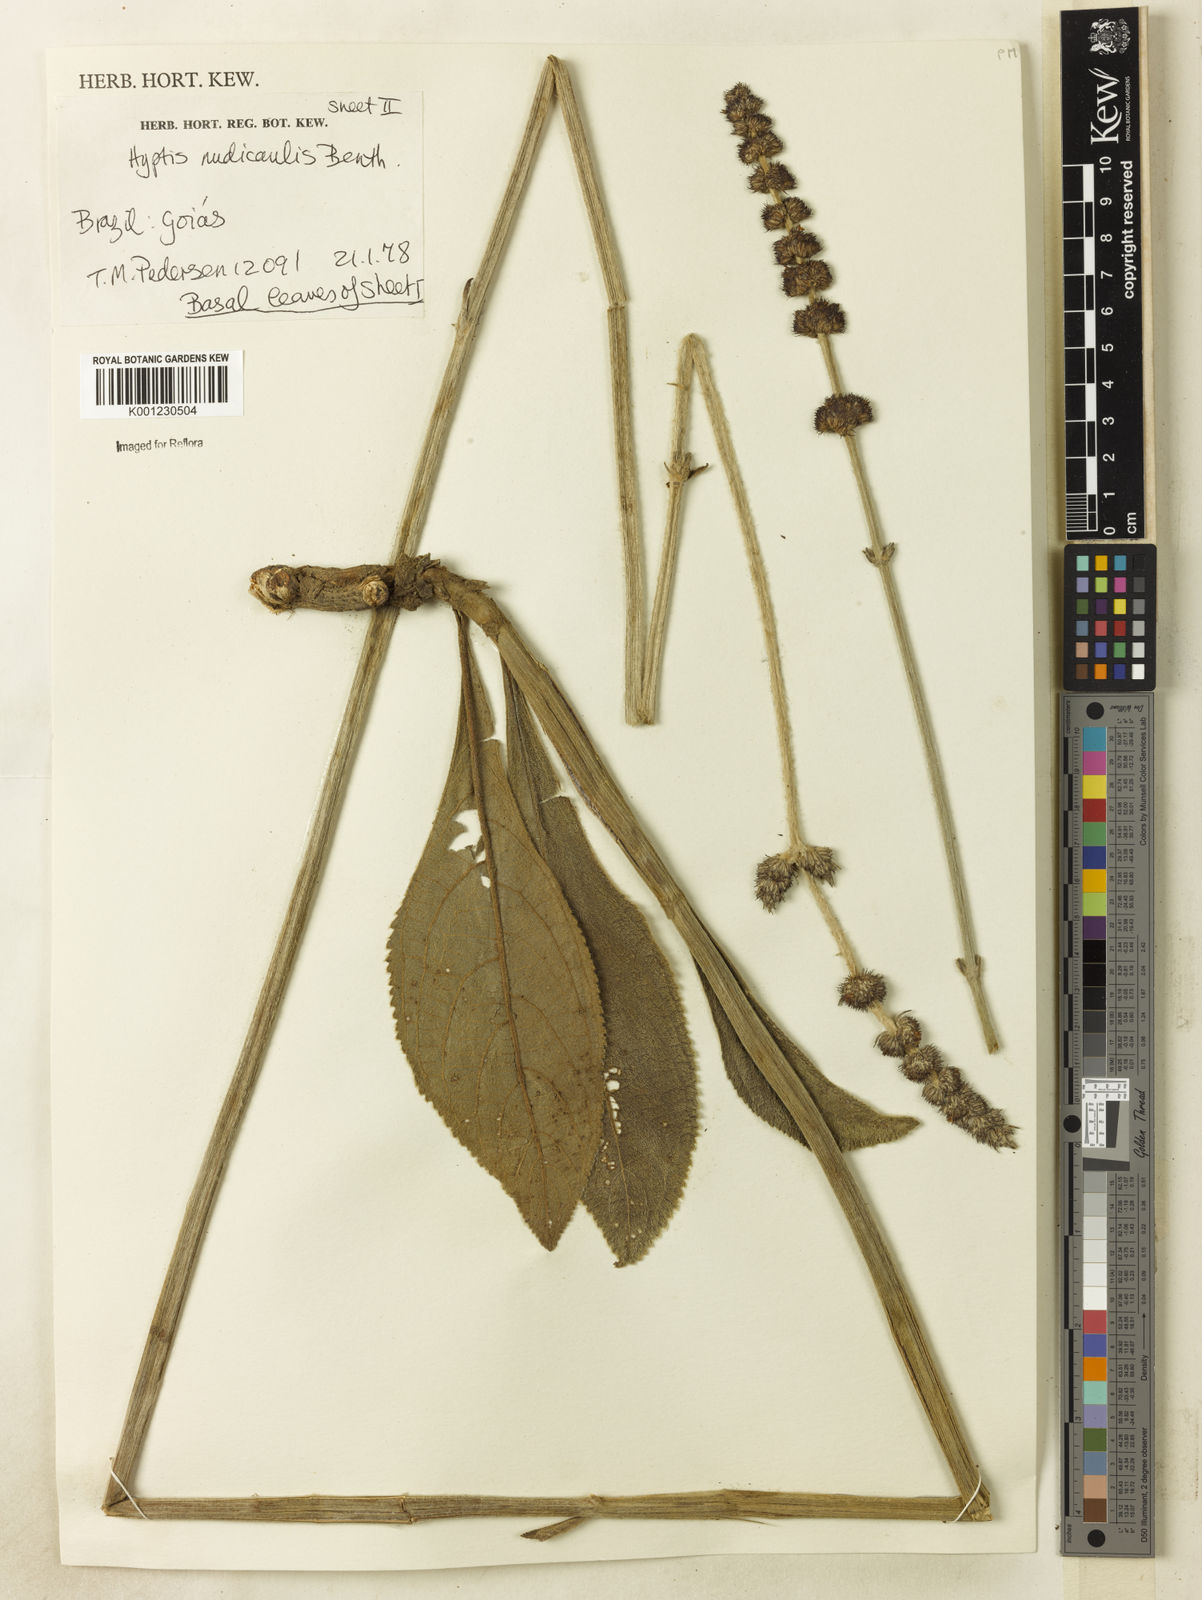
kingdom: Plantae
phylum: Tracheophyta
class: Magnoliopsida
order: Lamiales
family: Lamiaceae
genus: Hyptis
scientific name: Hyptis nudicaulis
